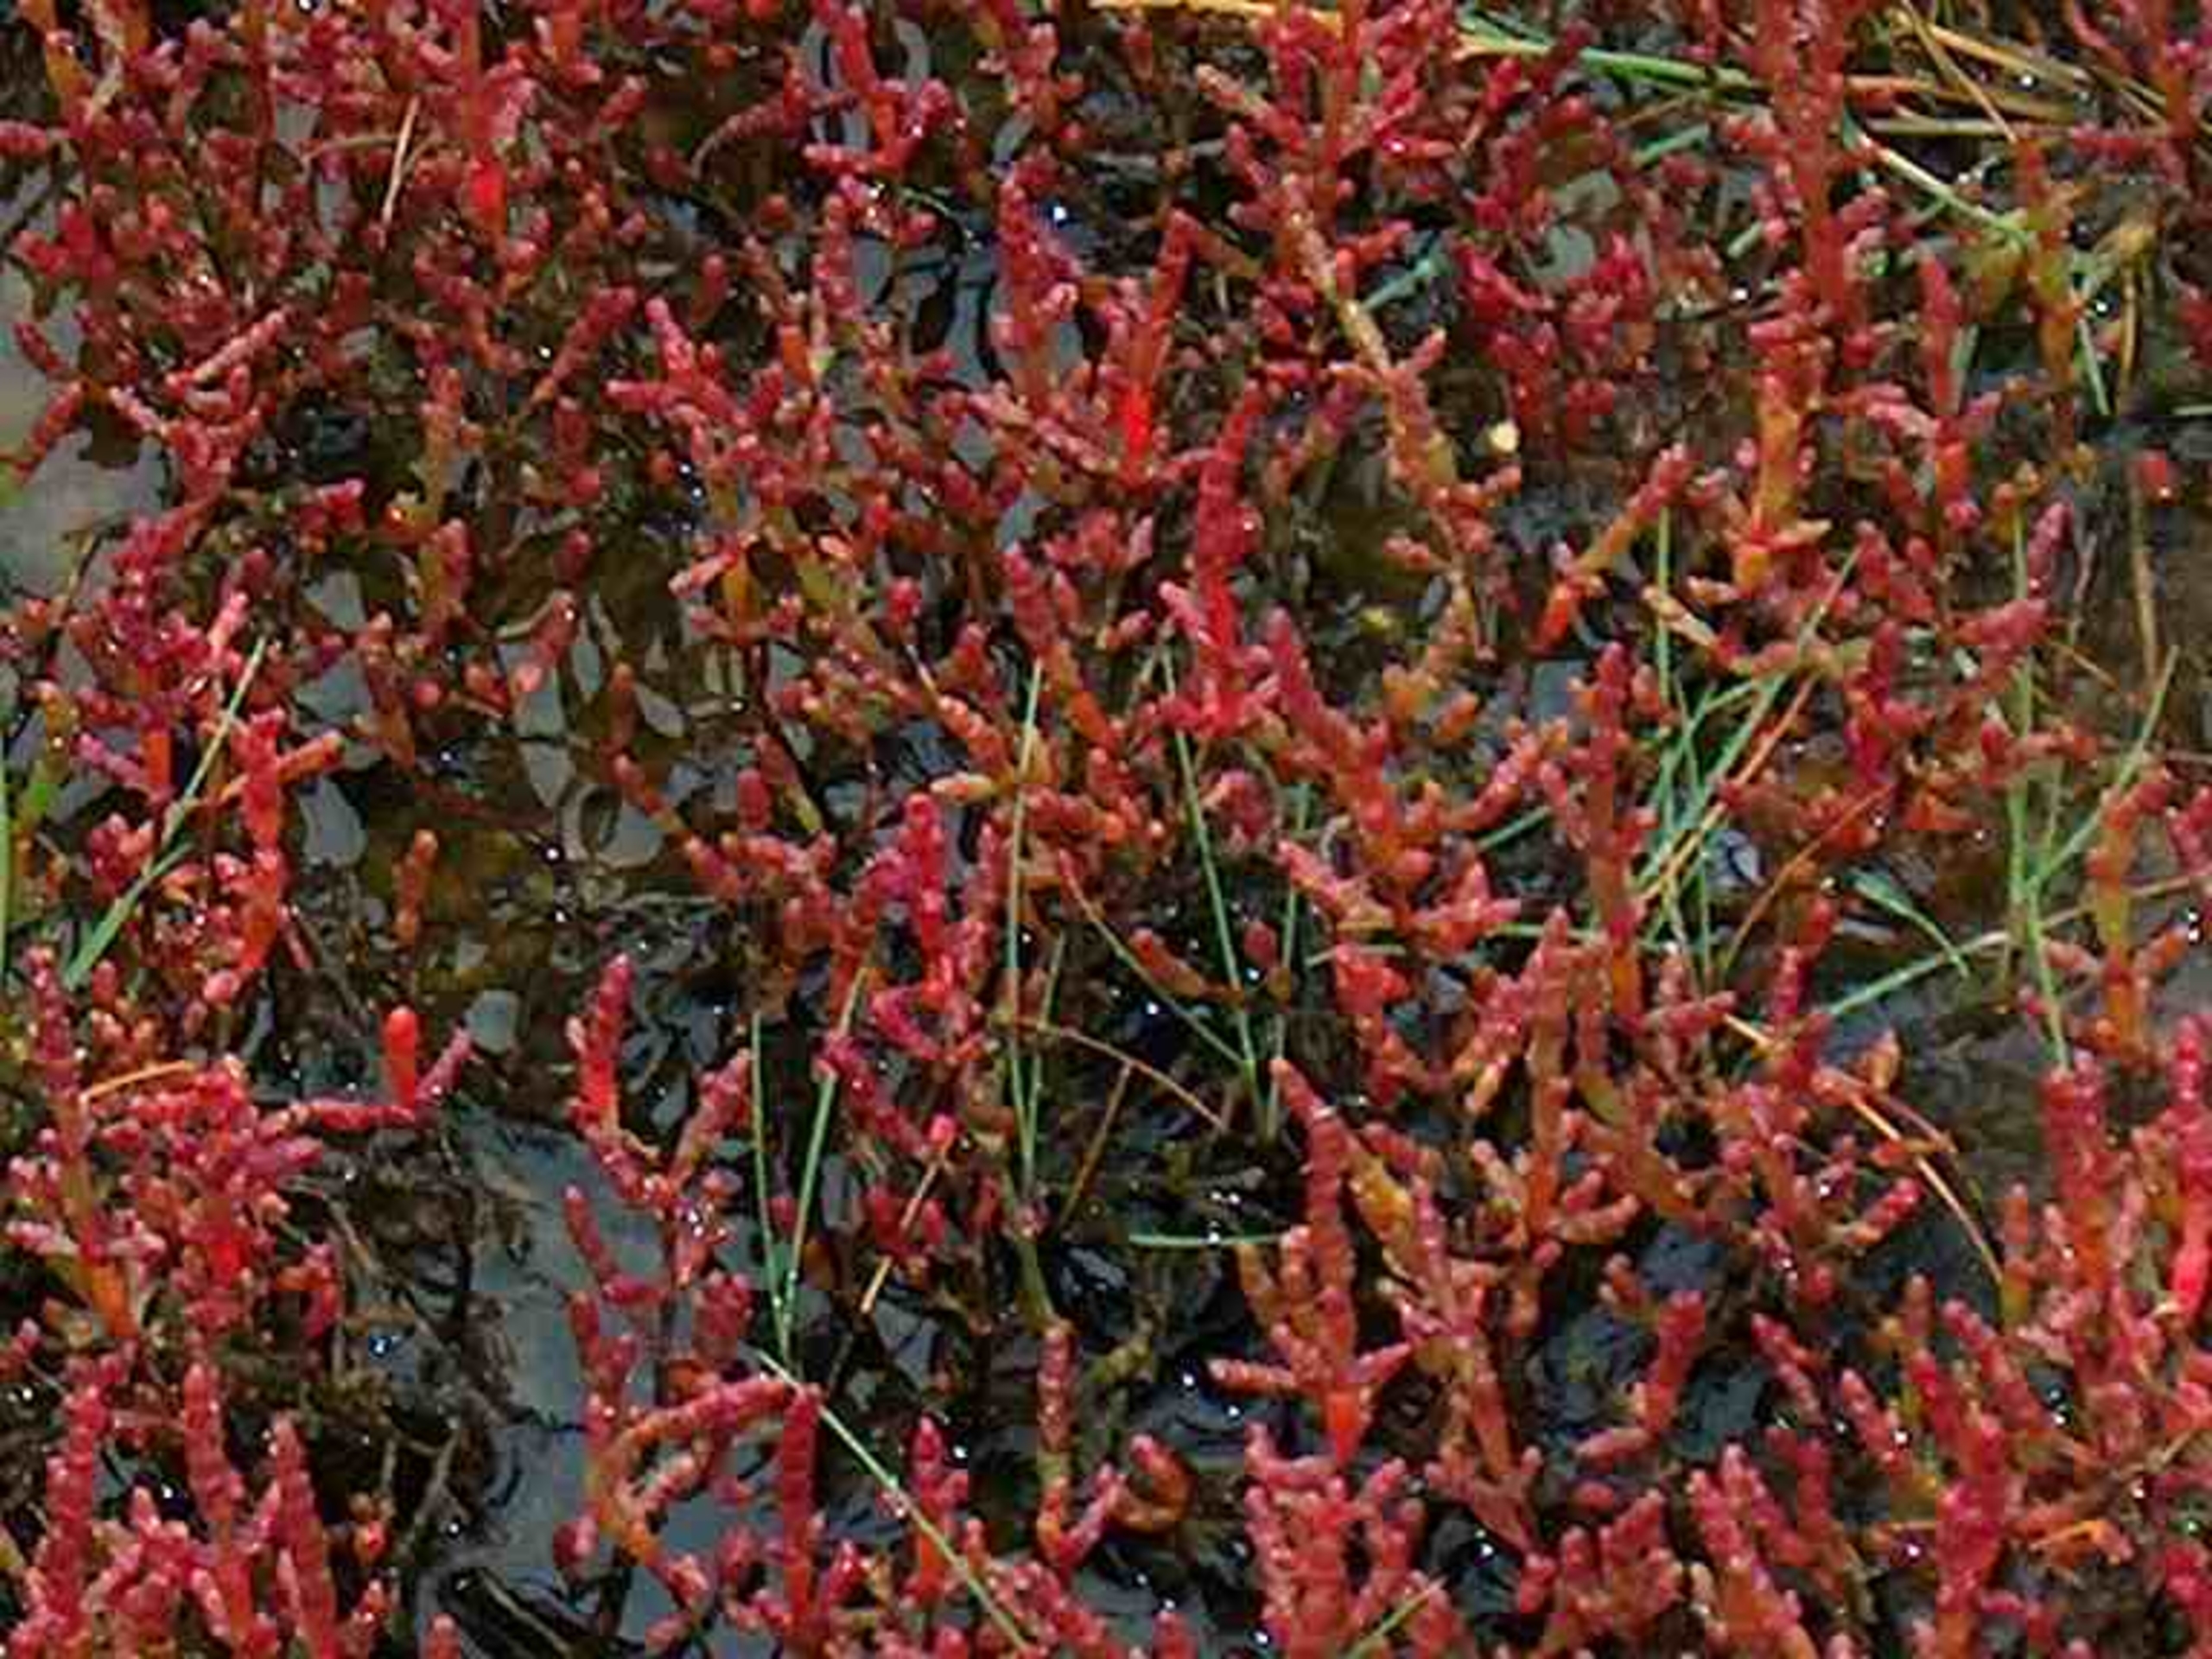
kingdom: Plantae
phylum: Tracheophyta
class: Magnoliopsida
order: Caryophyllales
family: Amaranthaceae
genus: Salicornia
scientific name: Salicornia europaea
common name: Almindelig salturt
